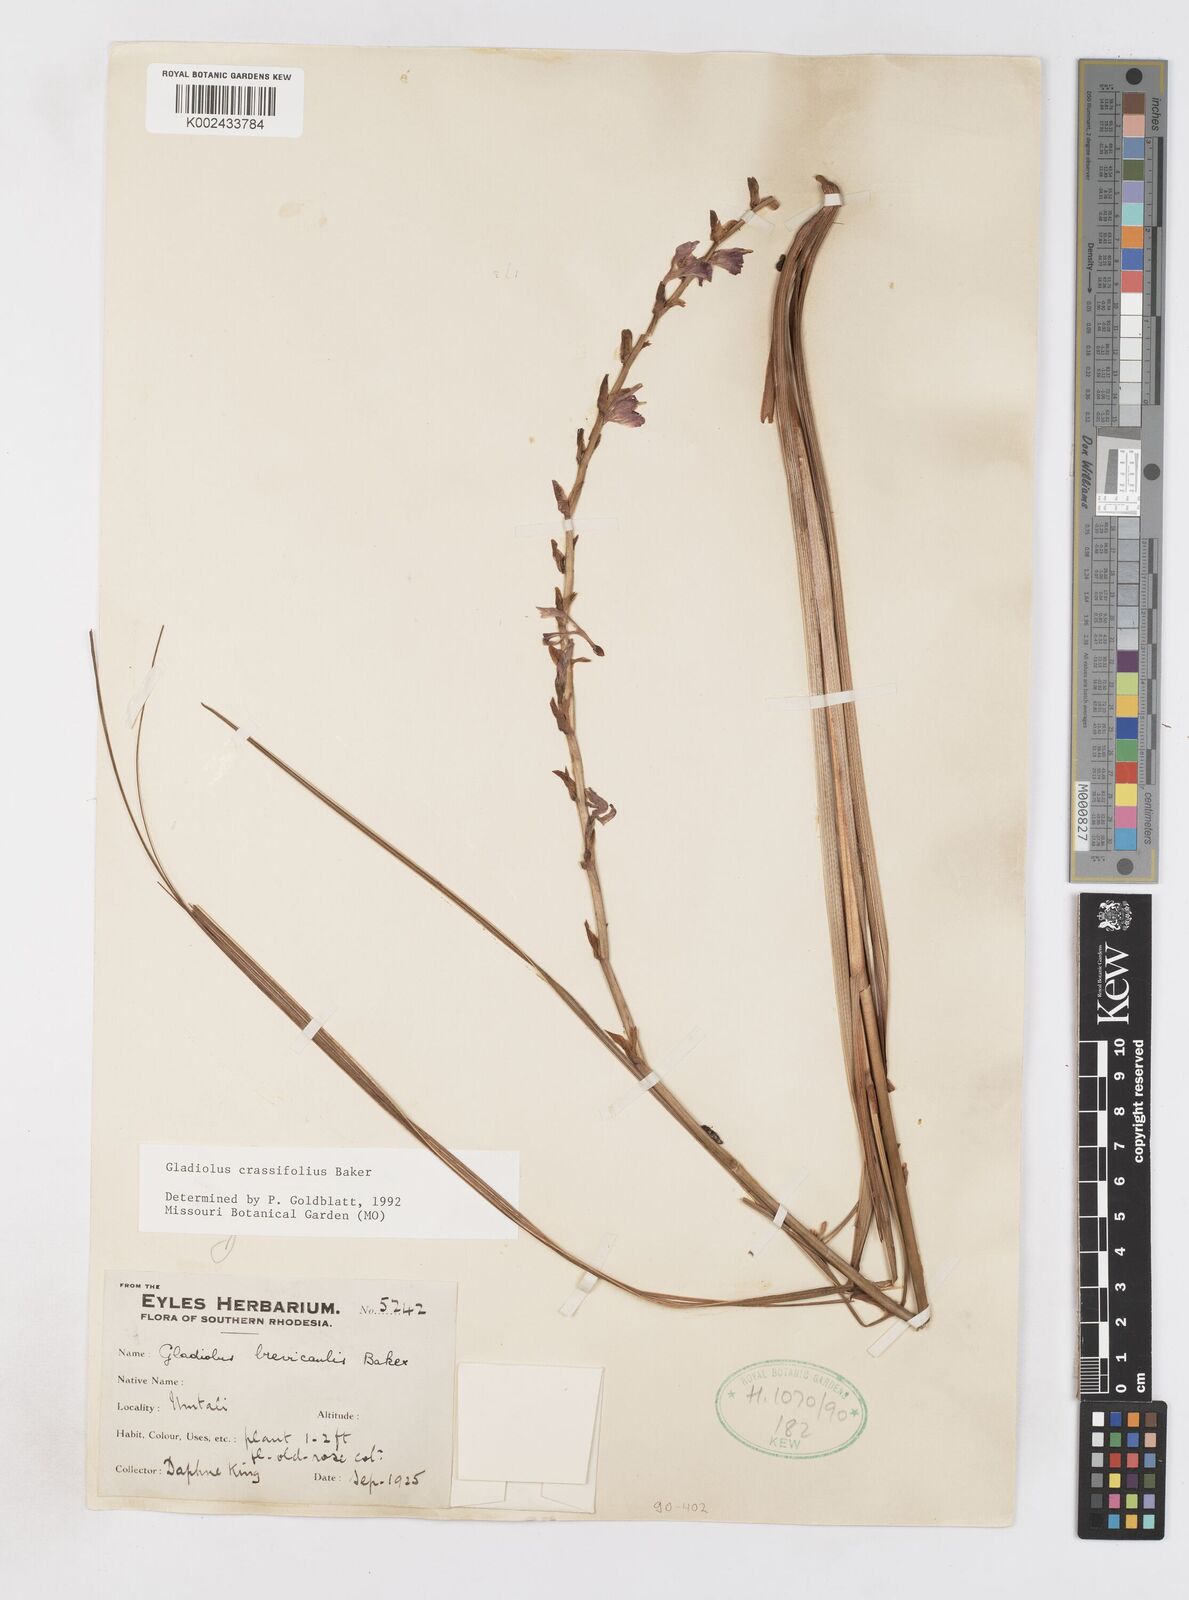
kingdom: Plantae
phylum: Tracheophyta
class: Liliopsida
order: Asparagales
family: Iridaceae
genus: Gladiolus
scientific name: Gladiolus crassifolius
